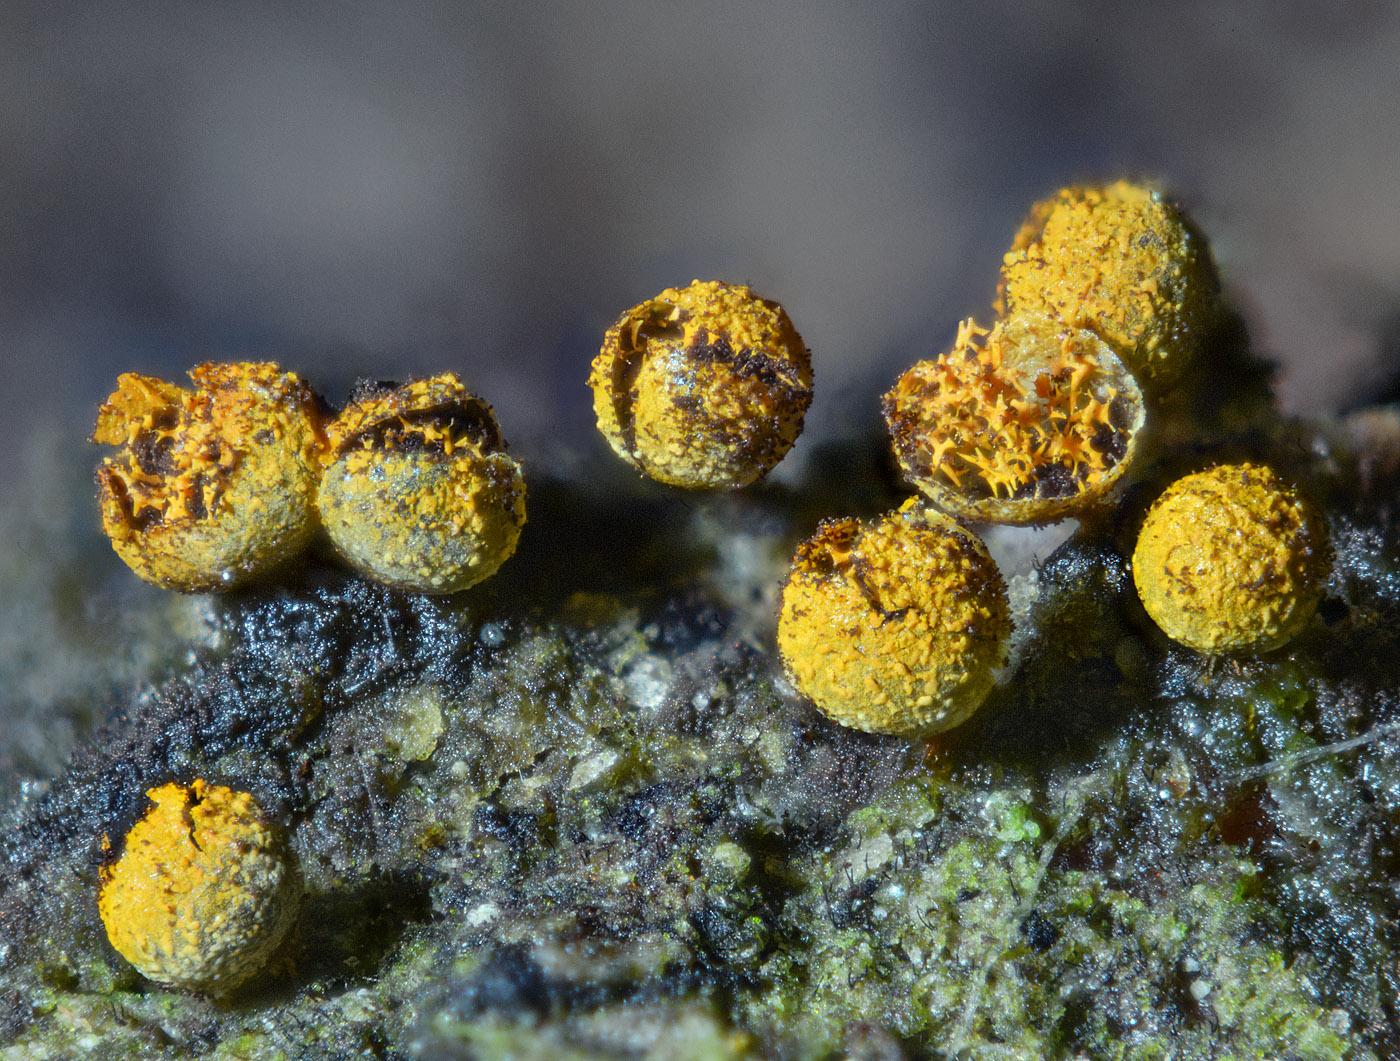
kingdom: Protozoa
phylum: Mycetozoa
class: Myxomycetes
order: Physarales
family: Physaraceae
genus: Physarum
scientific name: Physarum auriscalpium
